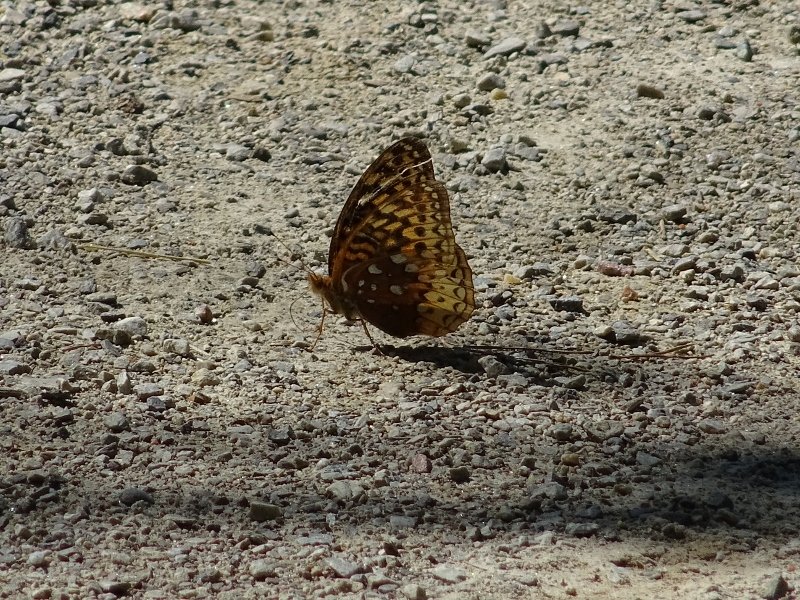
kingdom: Animalia
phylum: Arthropoda
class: Insecta
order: Lepidoptera
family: Nymphalidae
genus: Speyeria
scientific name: Speyeria cybele
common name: Great Spangled Fritillary
